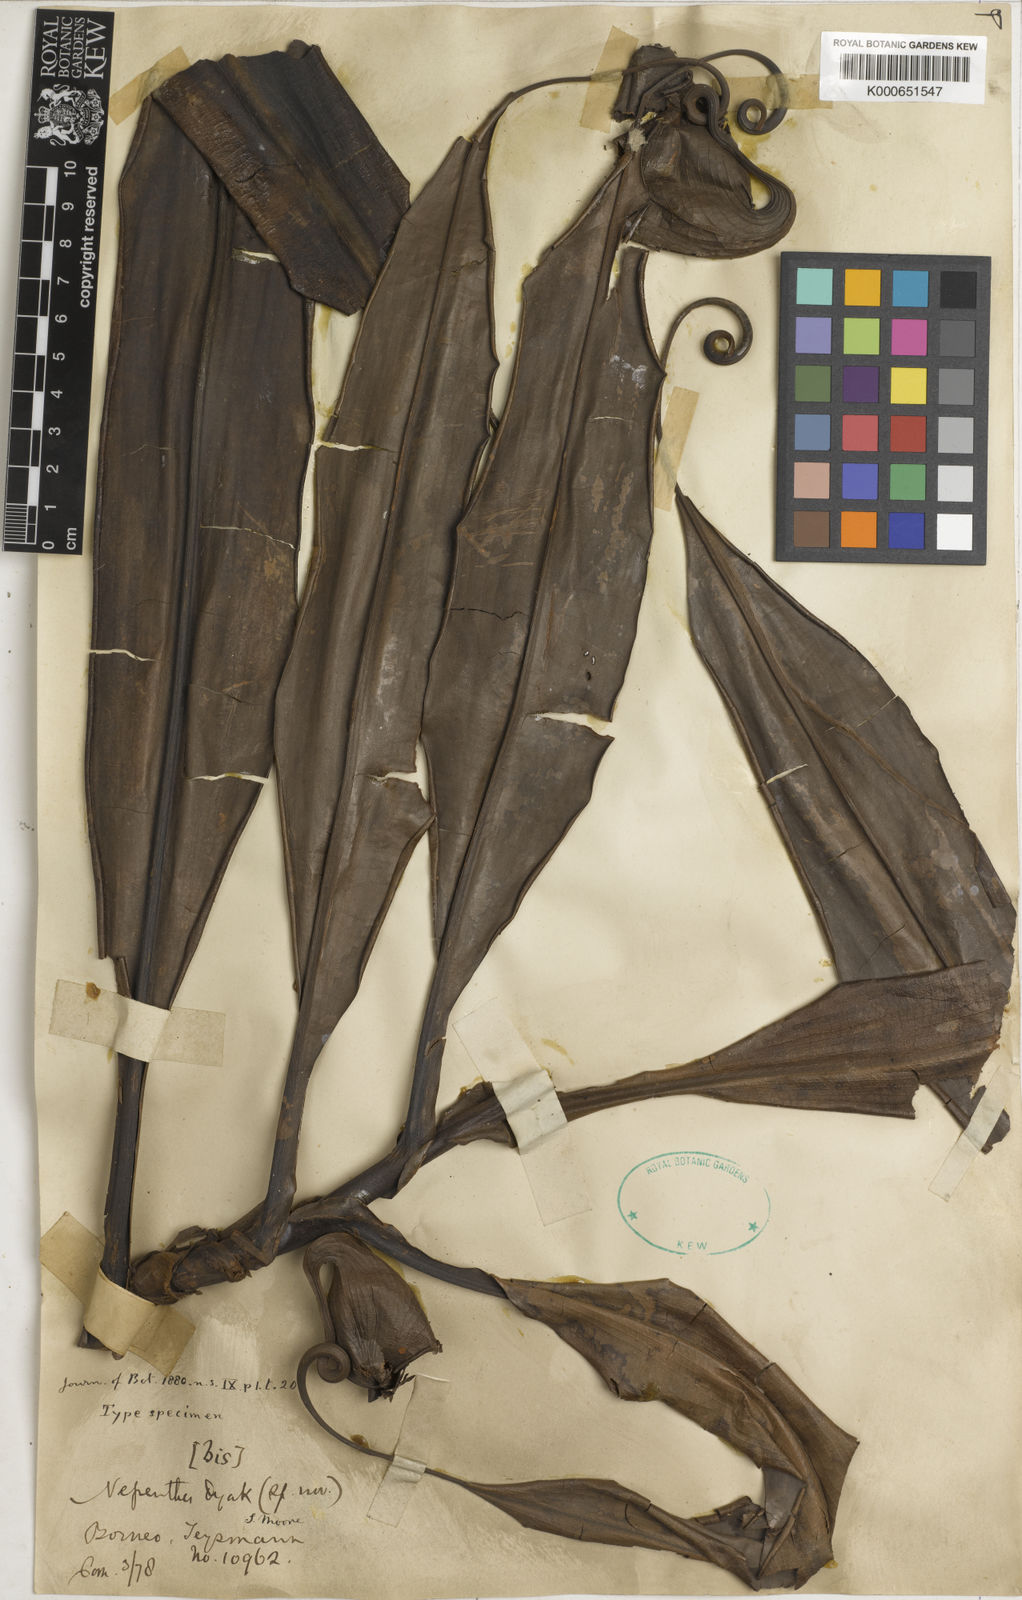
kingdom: Plantae
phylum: Tracheophyta
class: Magnoliopsida
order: Caryophyllales
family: Nepenthaceae
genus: Nepenthes
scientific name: Nepenthes bicalcarata
